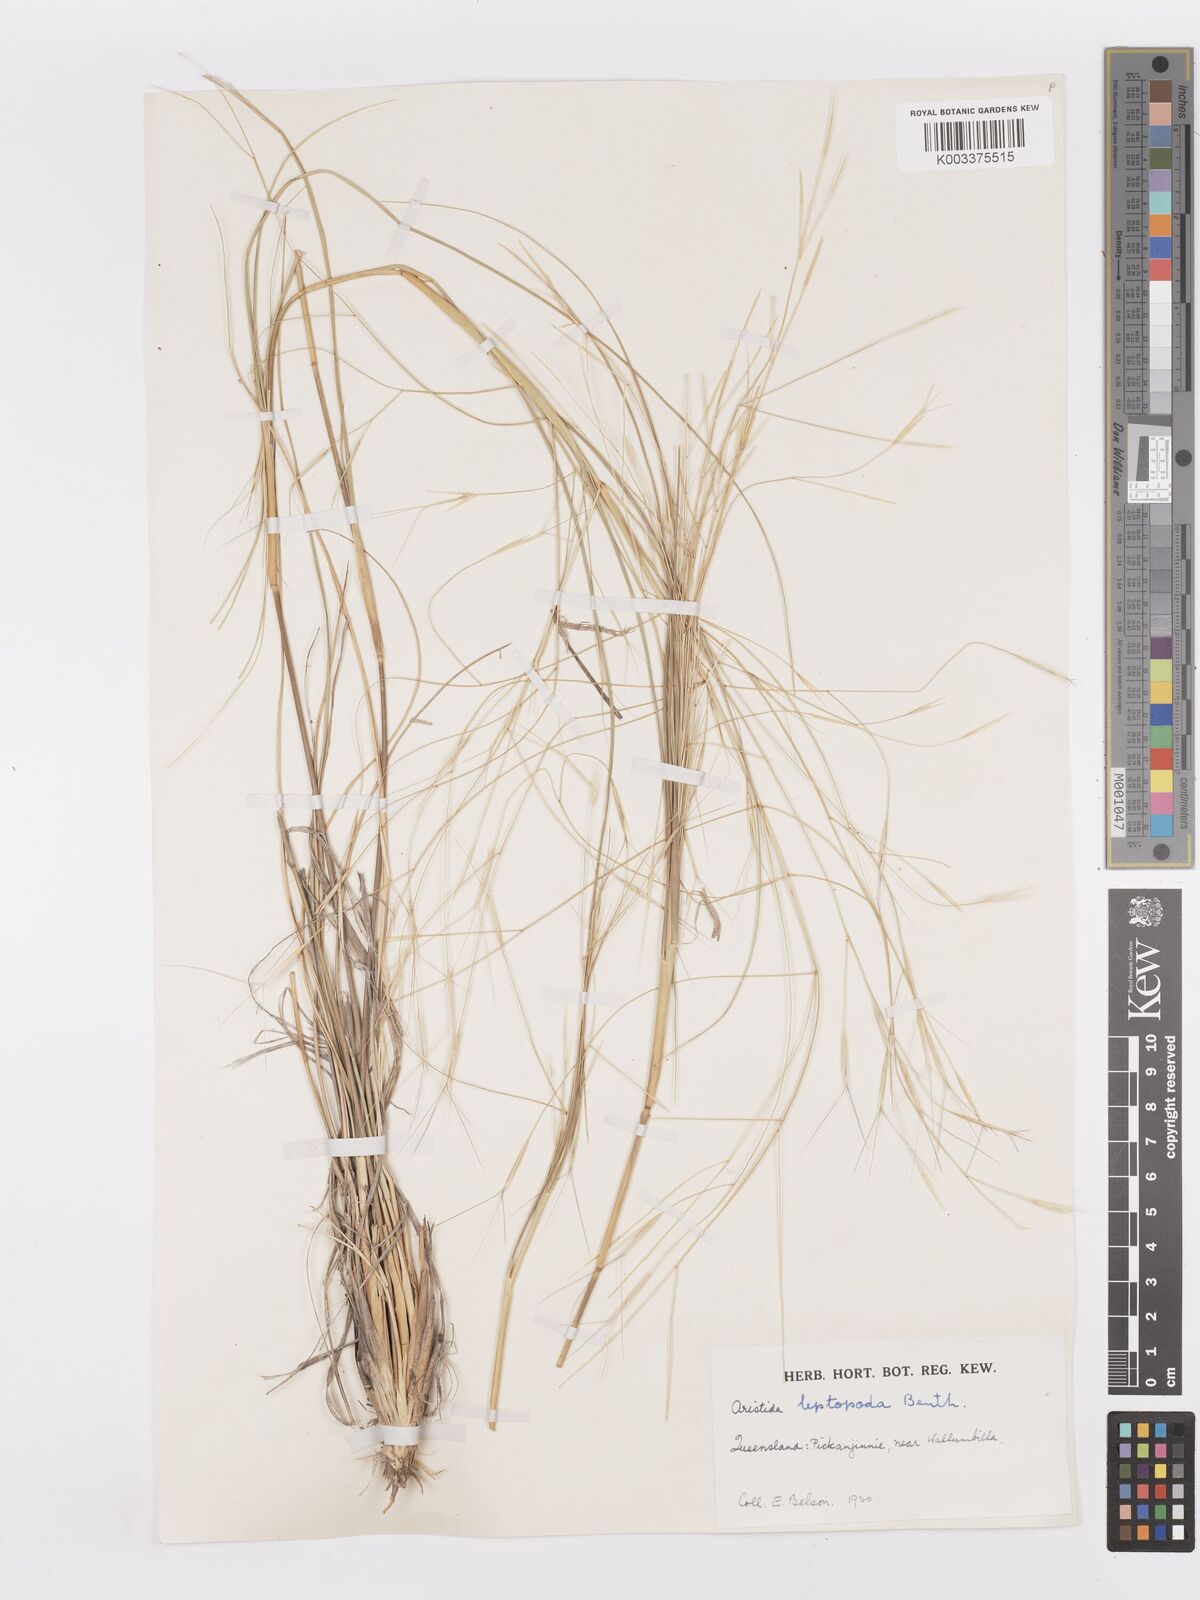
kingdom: Plantae
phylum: Tracheophyta
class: Liliopsida
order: Poales
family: Poaceae
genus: Aristida
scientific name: Aristida leptopoda
